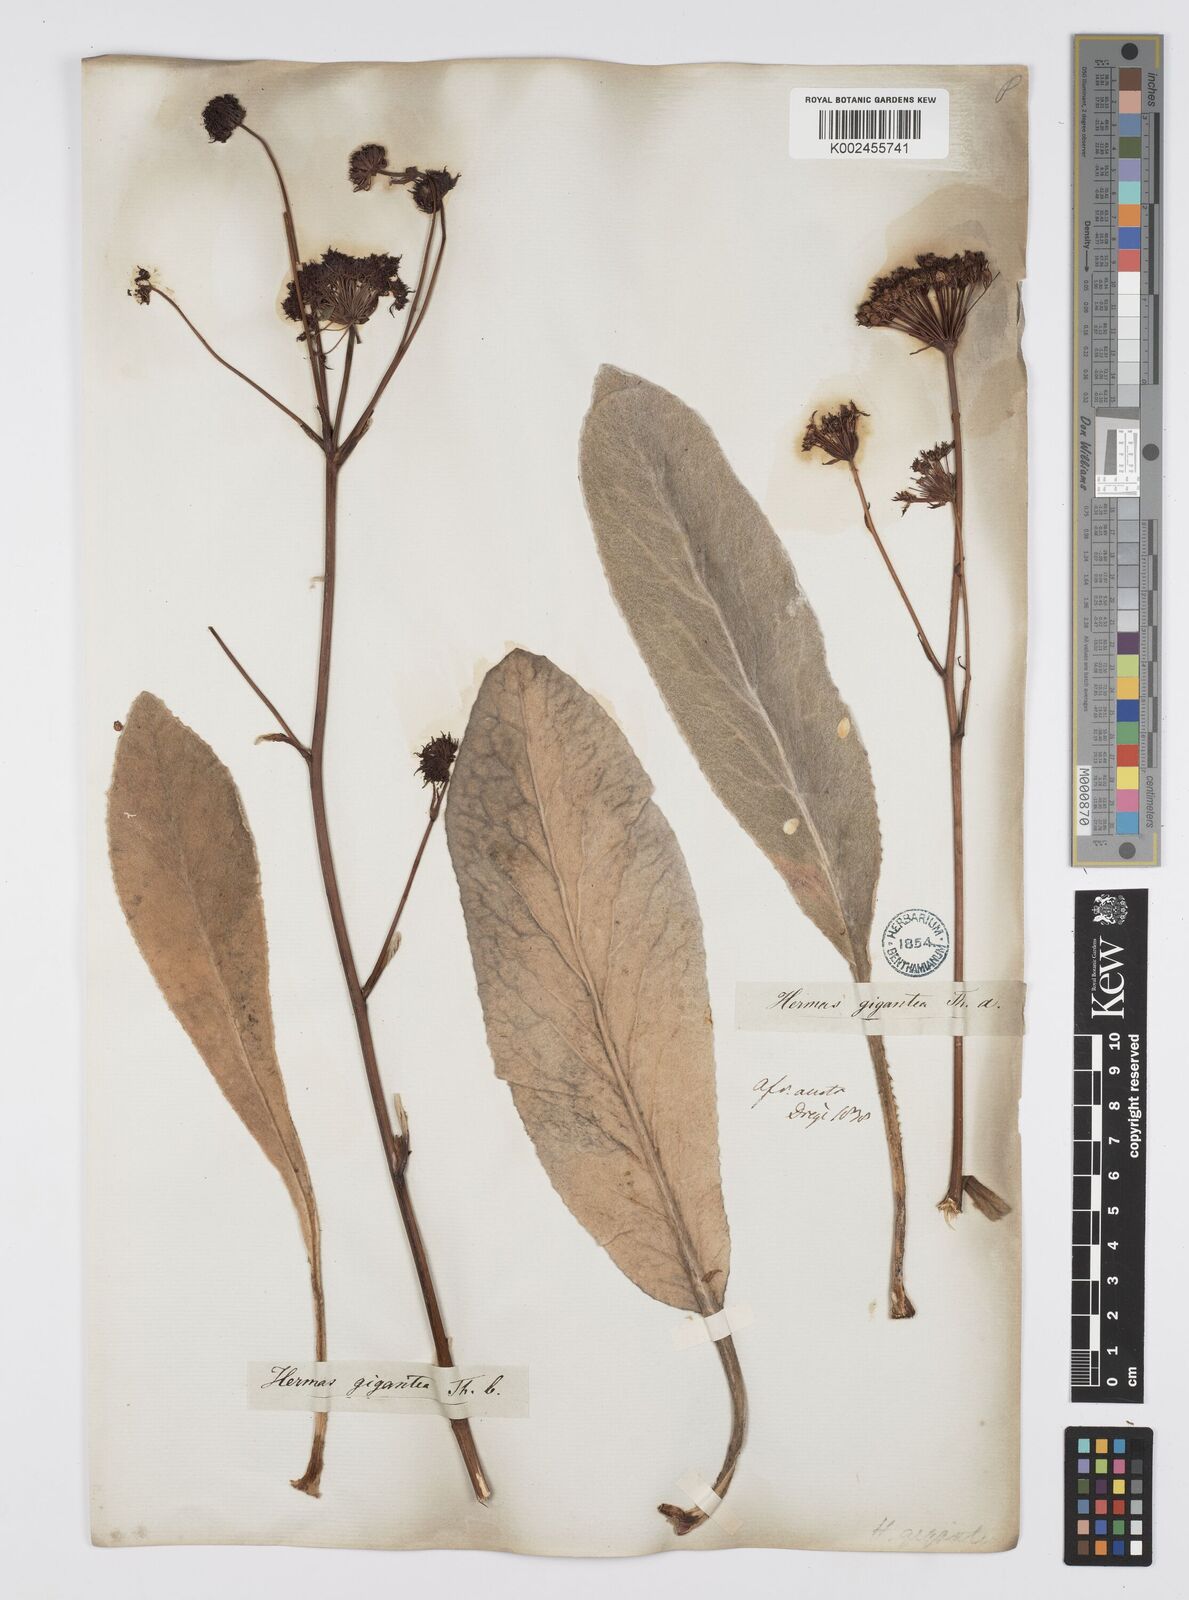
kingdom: Plantae
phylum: Tracheophyta
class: Magnoliopsida
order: Apiales
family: Apiaceae
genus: Hermas
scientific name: Hermas gigantea
